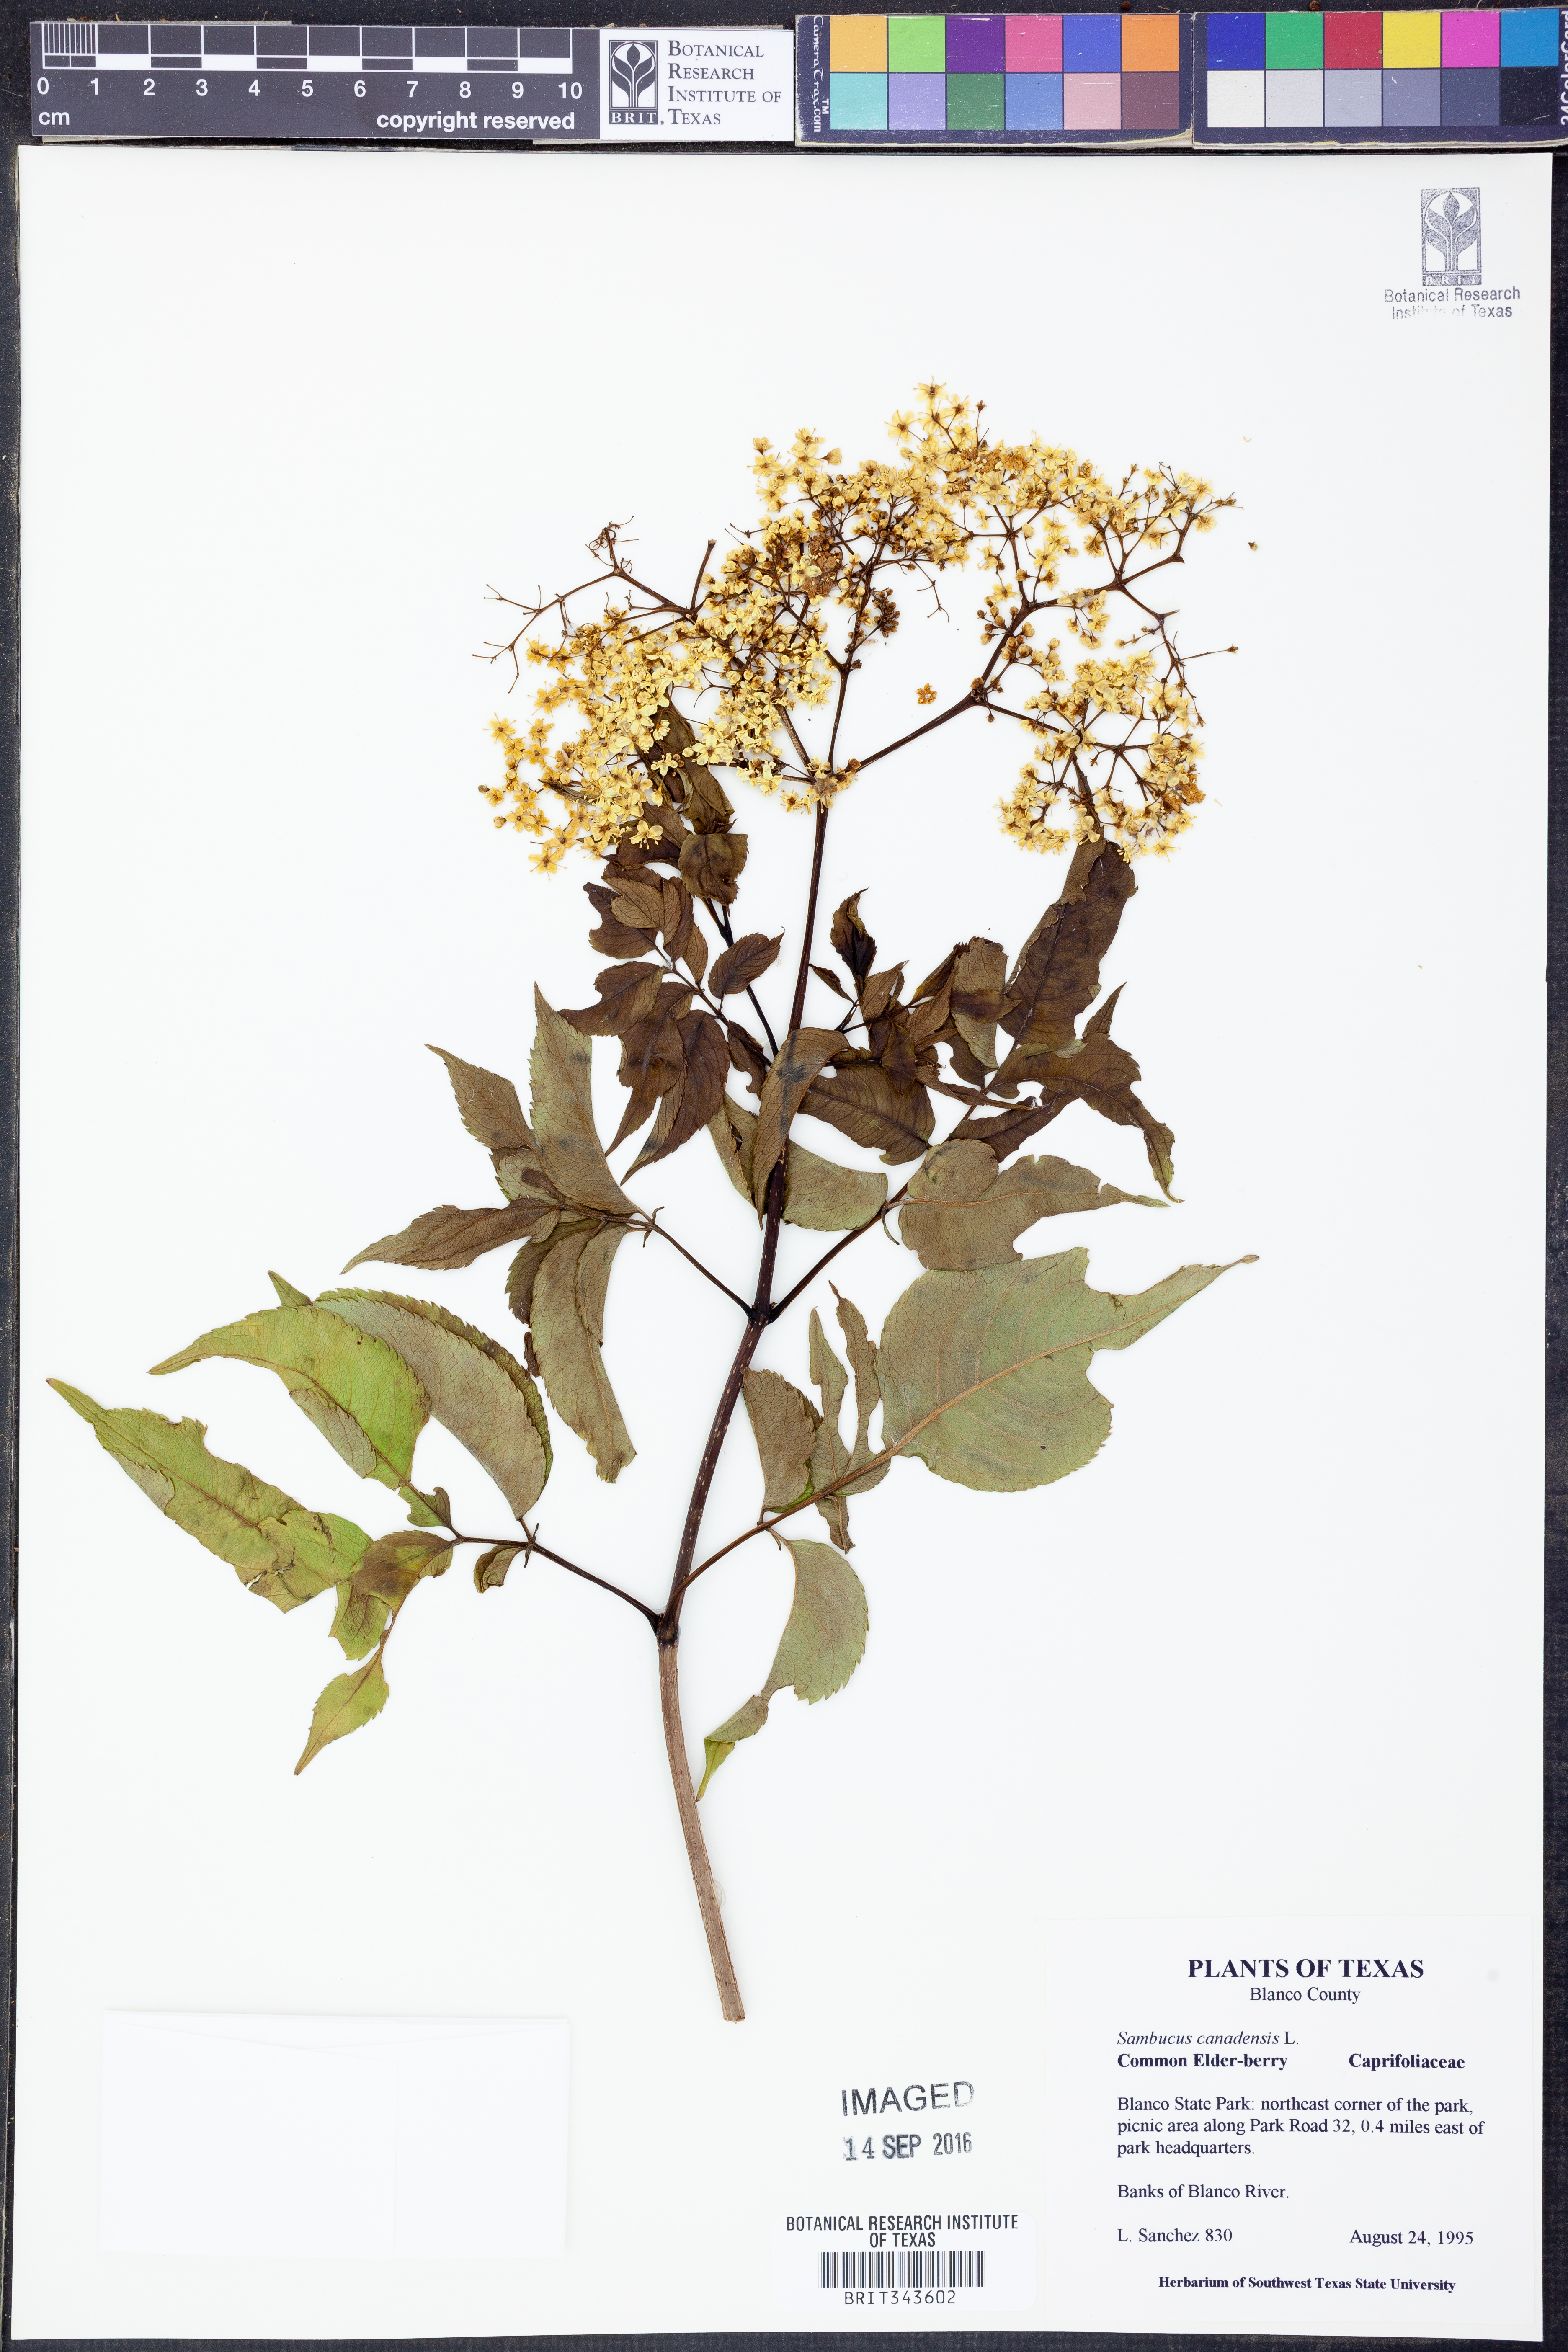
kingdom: Plantae
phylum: Tracheophyta
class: Magnoliopsida
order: Dipsacales
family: Viburnaceae
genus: Sambucus
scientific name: Sambucus canadensis
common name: American elder
